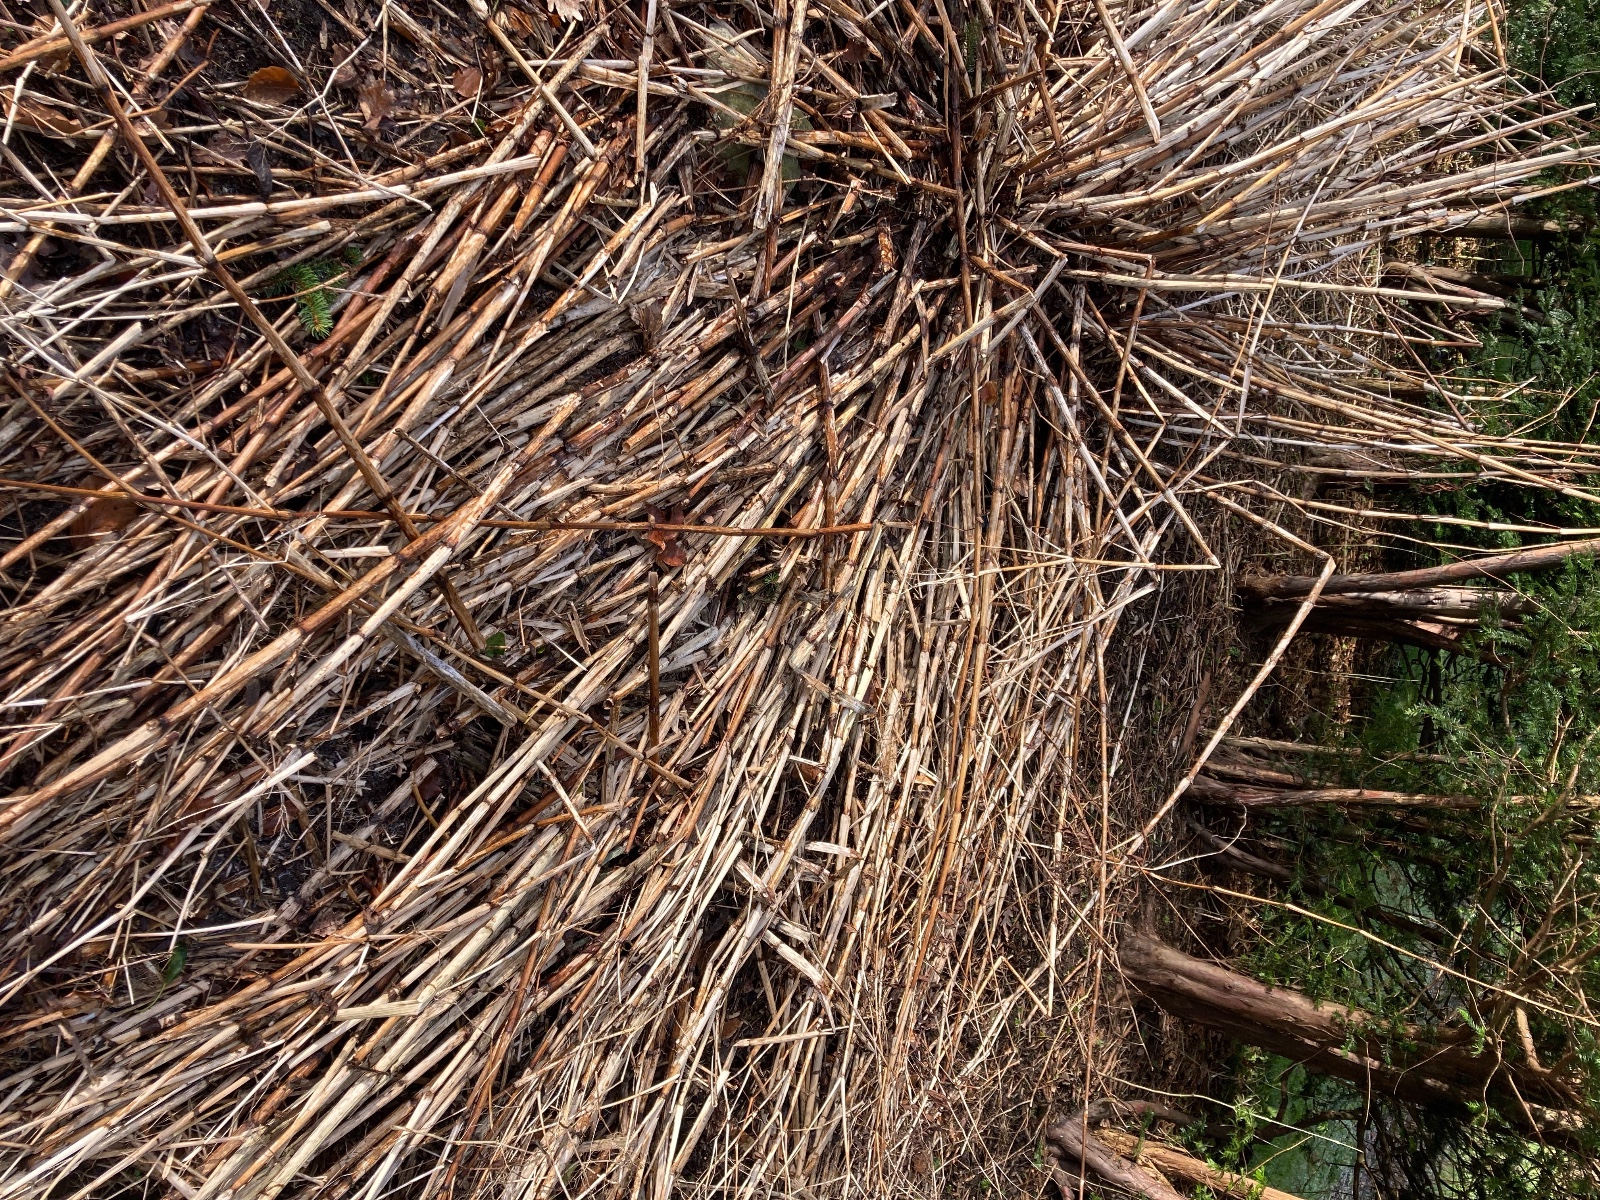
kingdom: Fungi
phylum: Ascomycota
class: Dothideomycetes
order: Pleosporales
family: Melanommataceae
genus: Phragmocephala
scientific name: Phragmocephala elliptica
